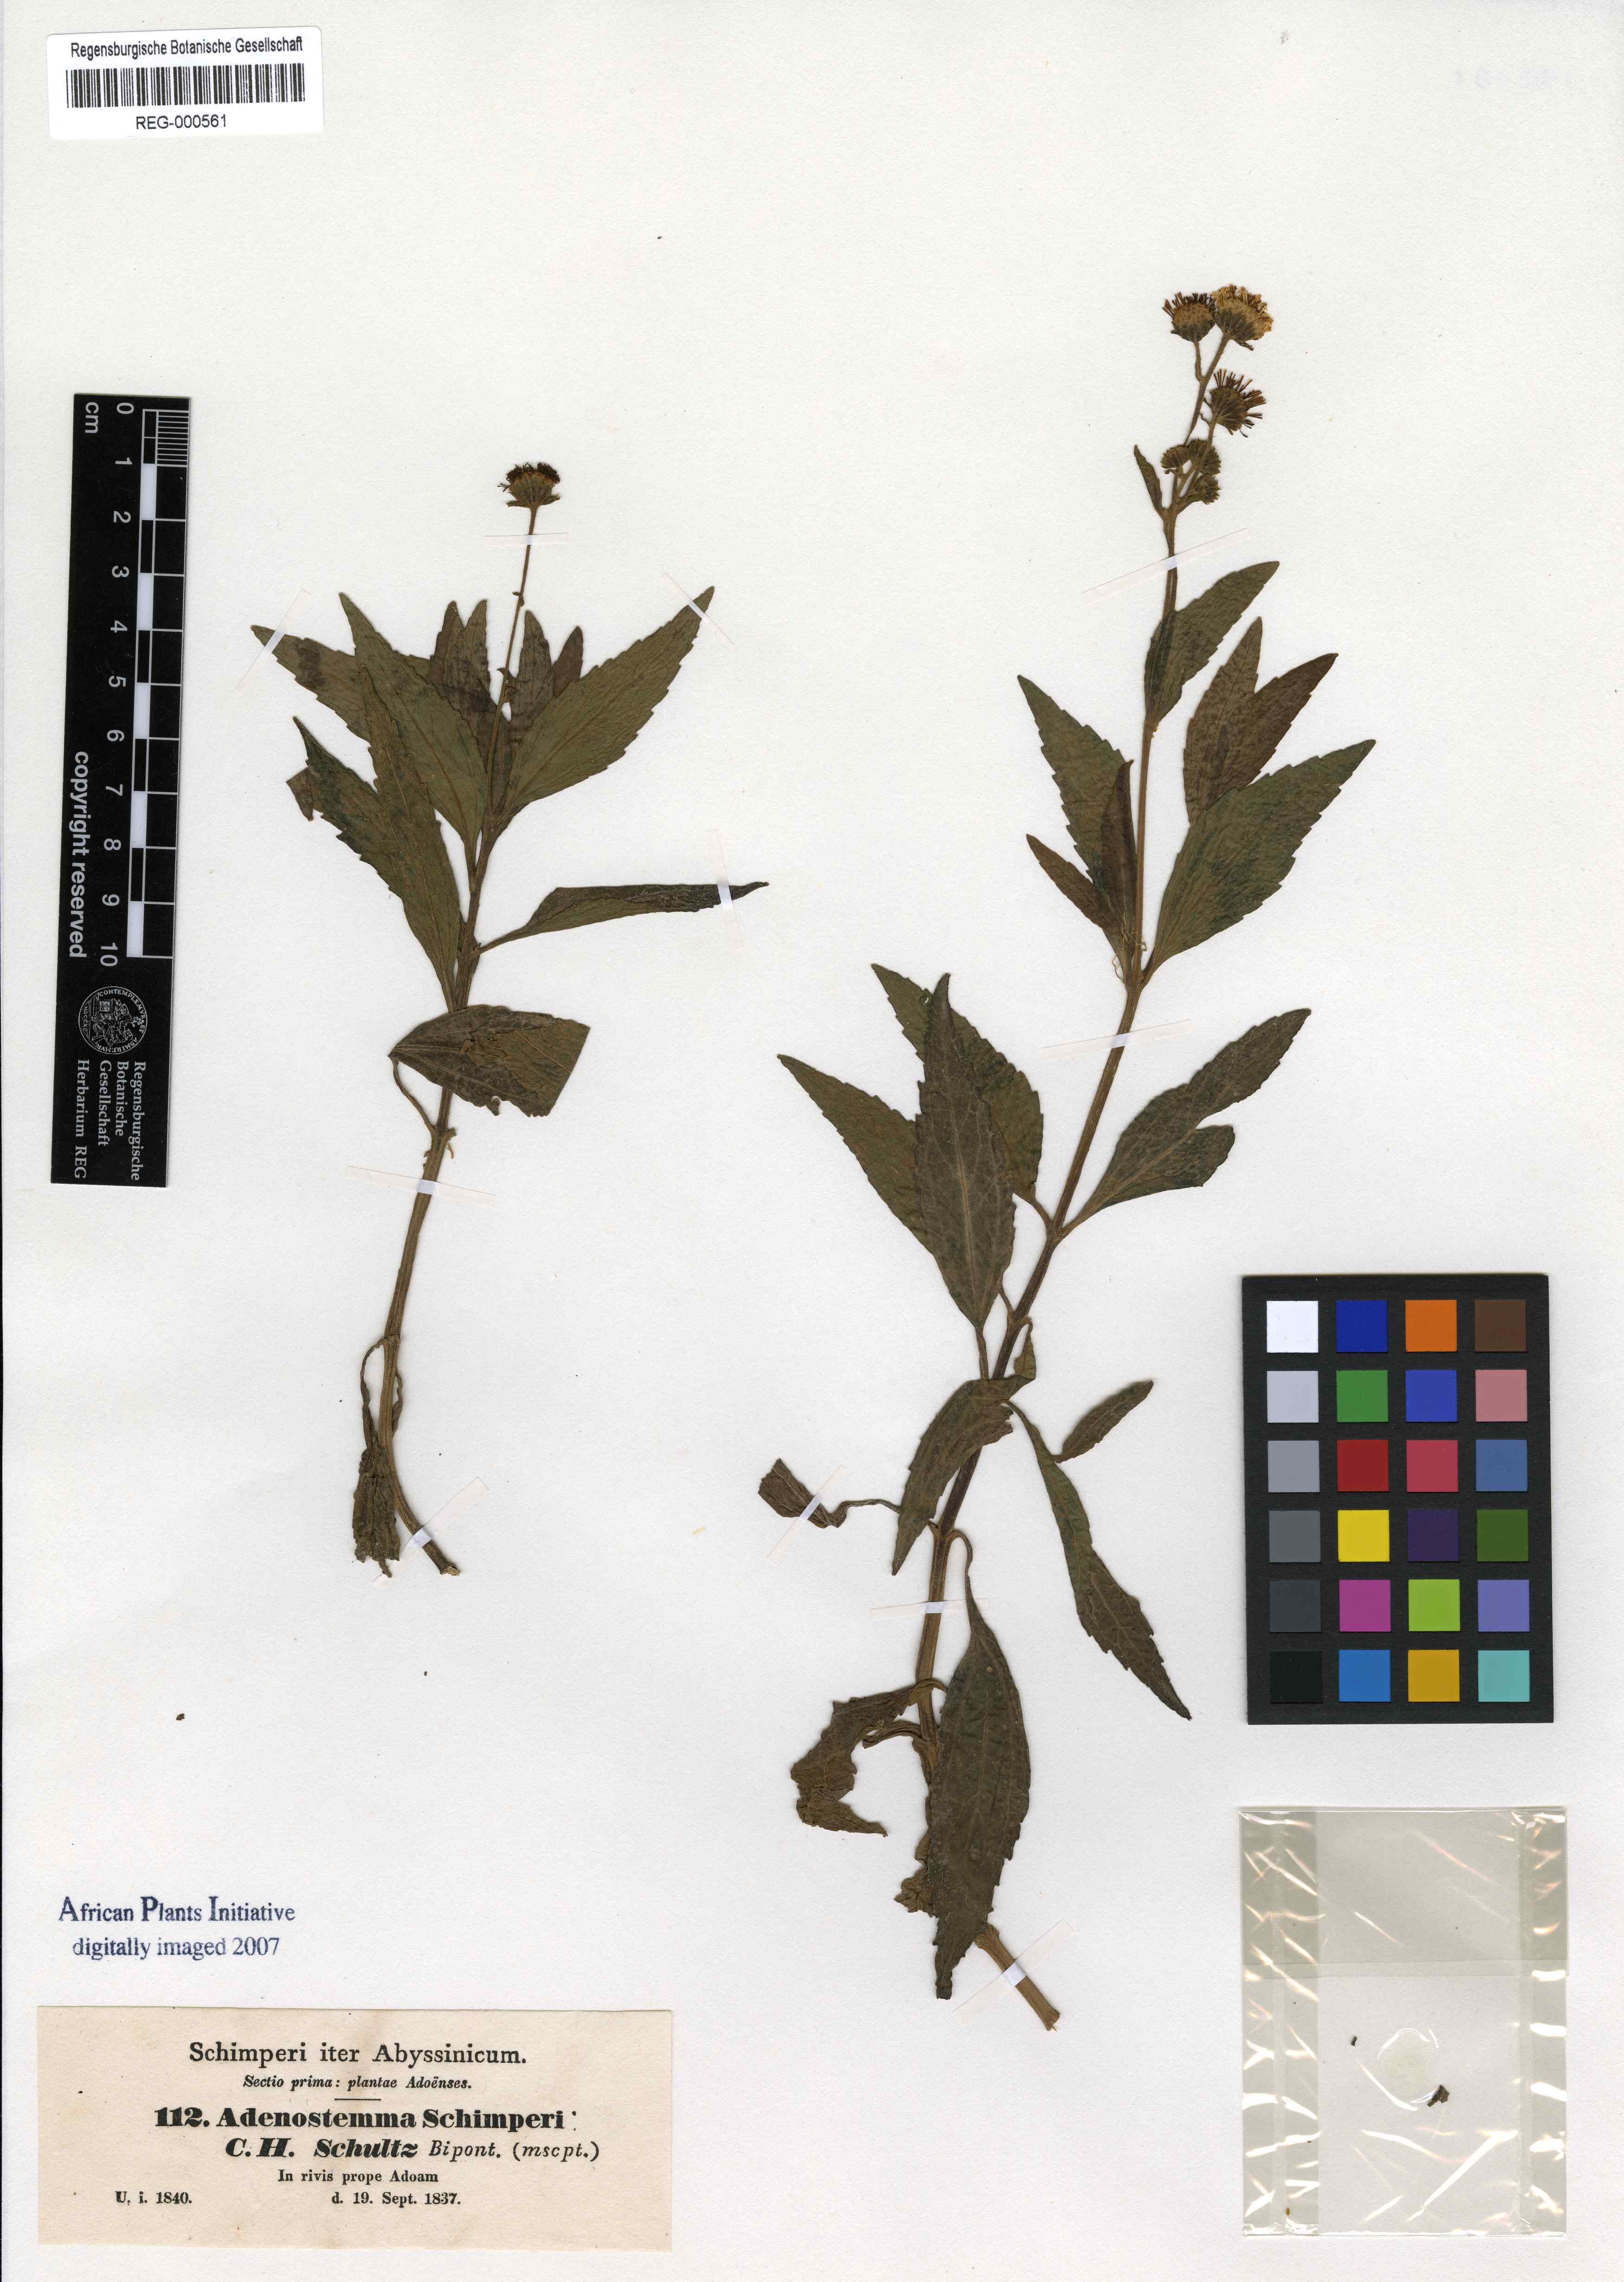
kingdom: Plantae
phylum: Tracheophyta
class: Magnoliopsida
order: Asterales
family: Asteraceae
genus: Adenostemma
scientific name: Adenostemma caffrum
